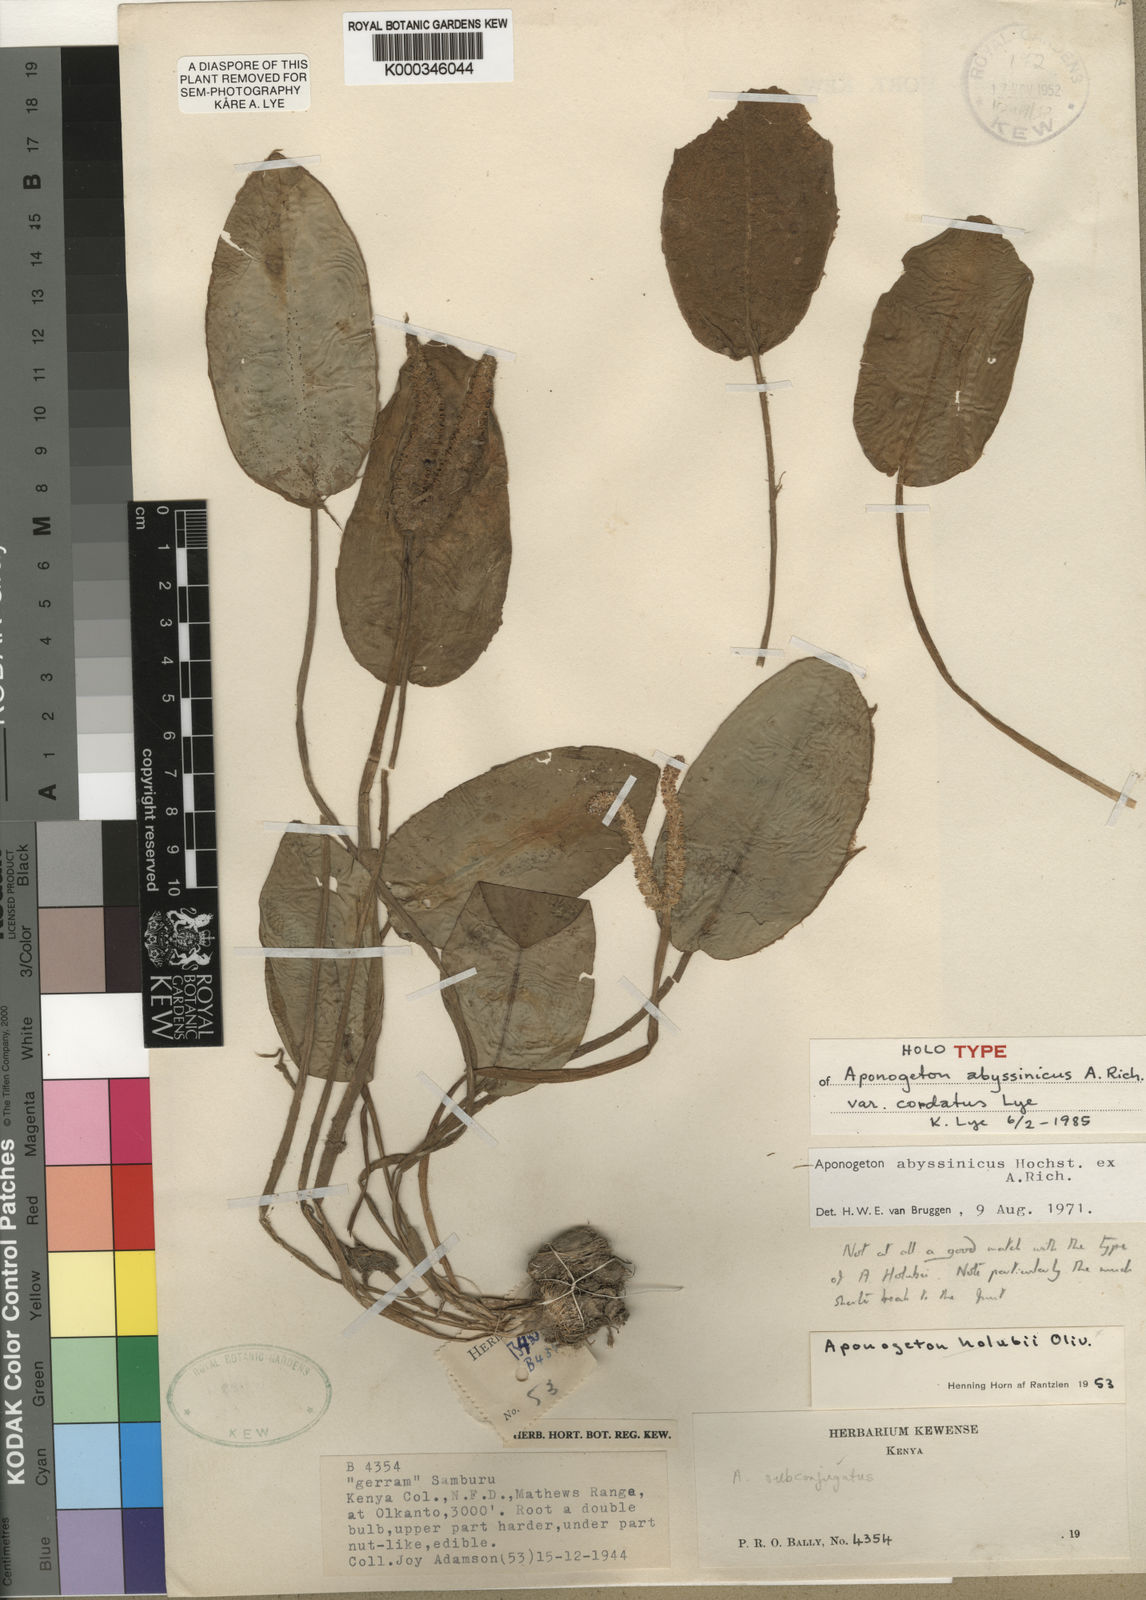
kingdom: Plantae
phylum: Tracheophyta
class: Liliopsida
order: Alismatales
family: Aponogetonaceae
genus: Aponogeton
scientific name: Aponogeton abyssinicus
